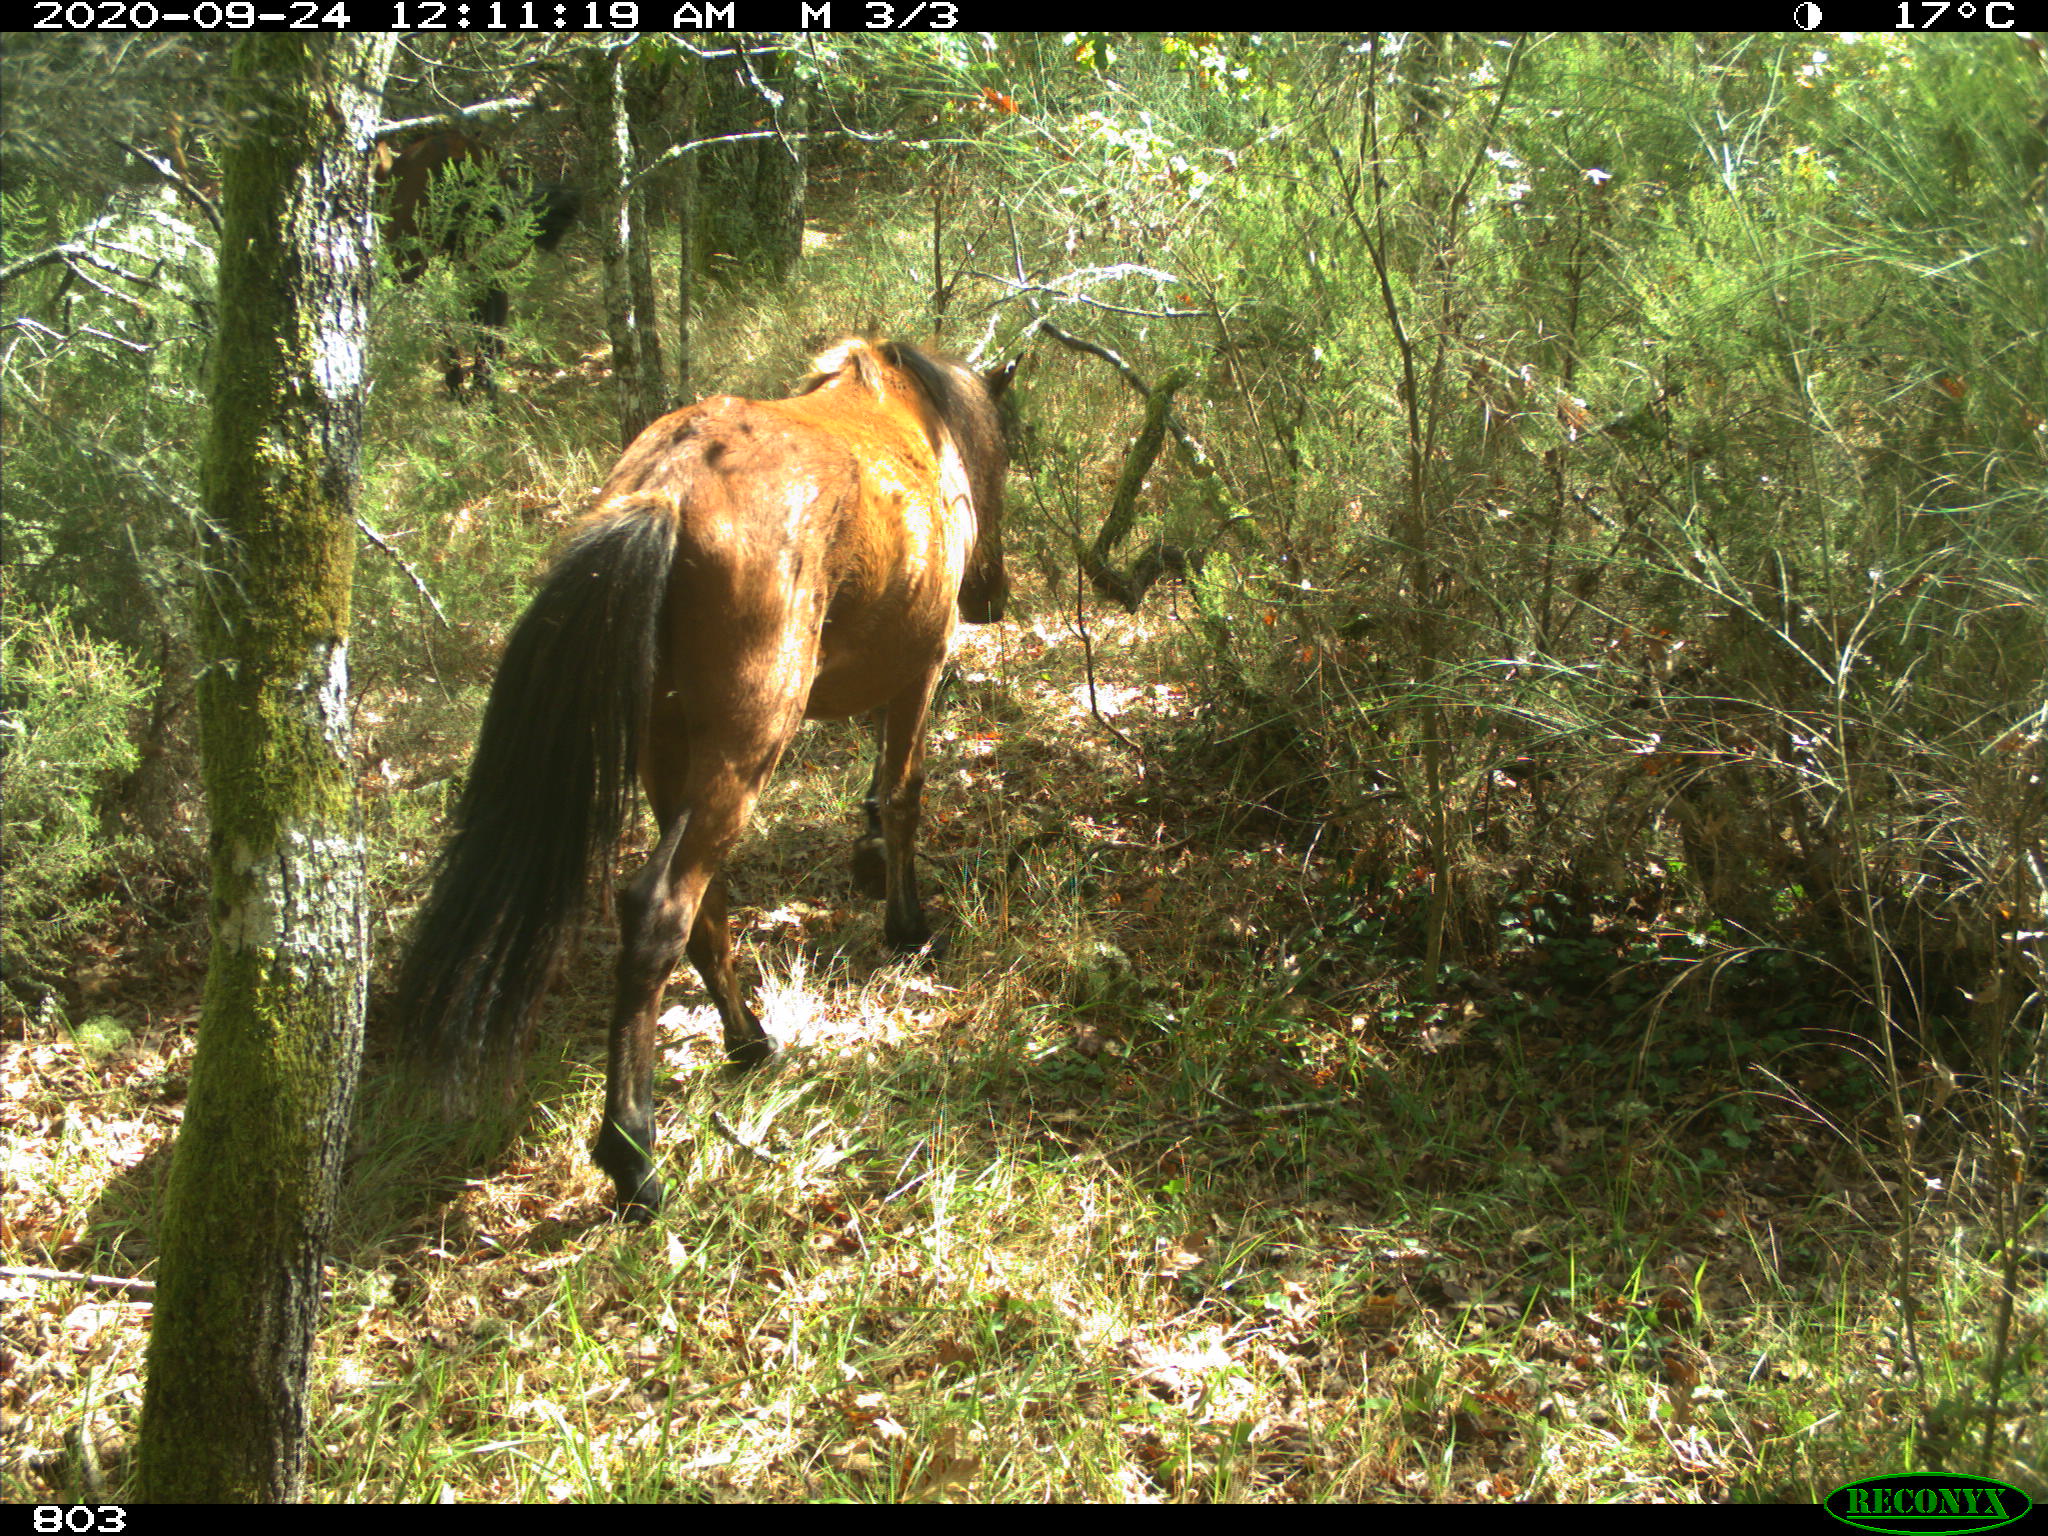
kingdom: Animalia
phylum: Chordata
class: Mammalia
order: Perissodactyla
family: Equidae
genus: Equus
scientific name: Equus caballus
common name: Horse
